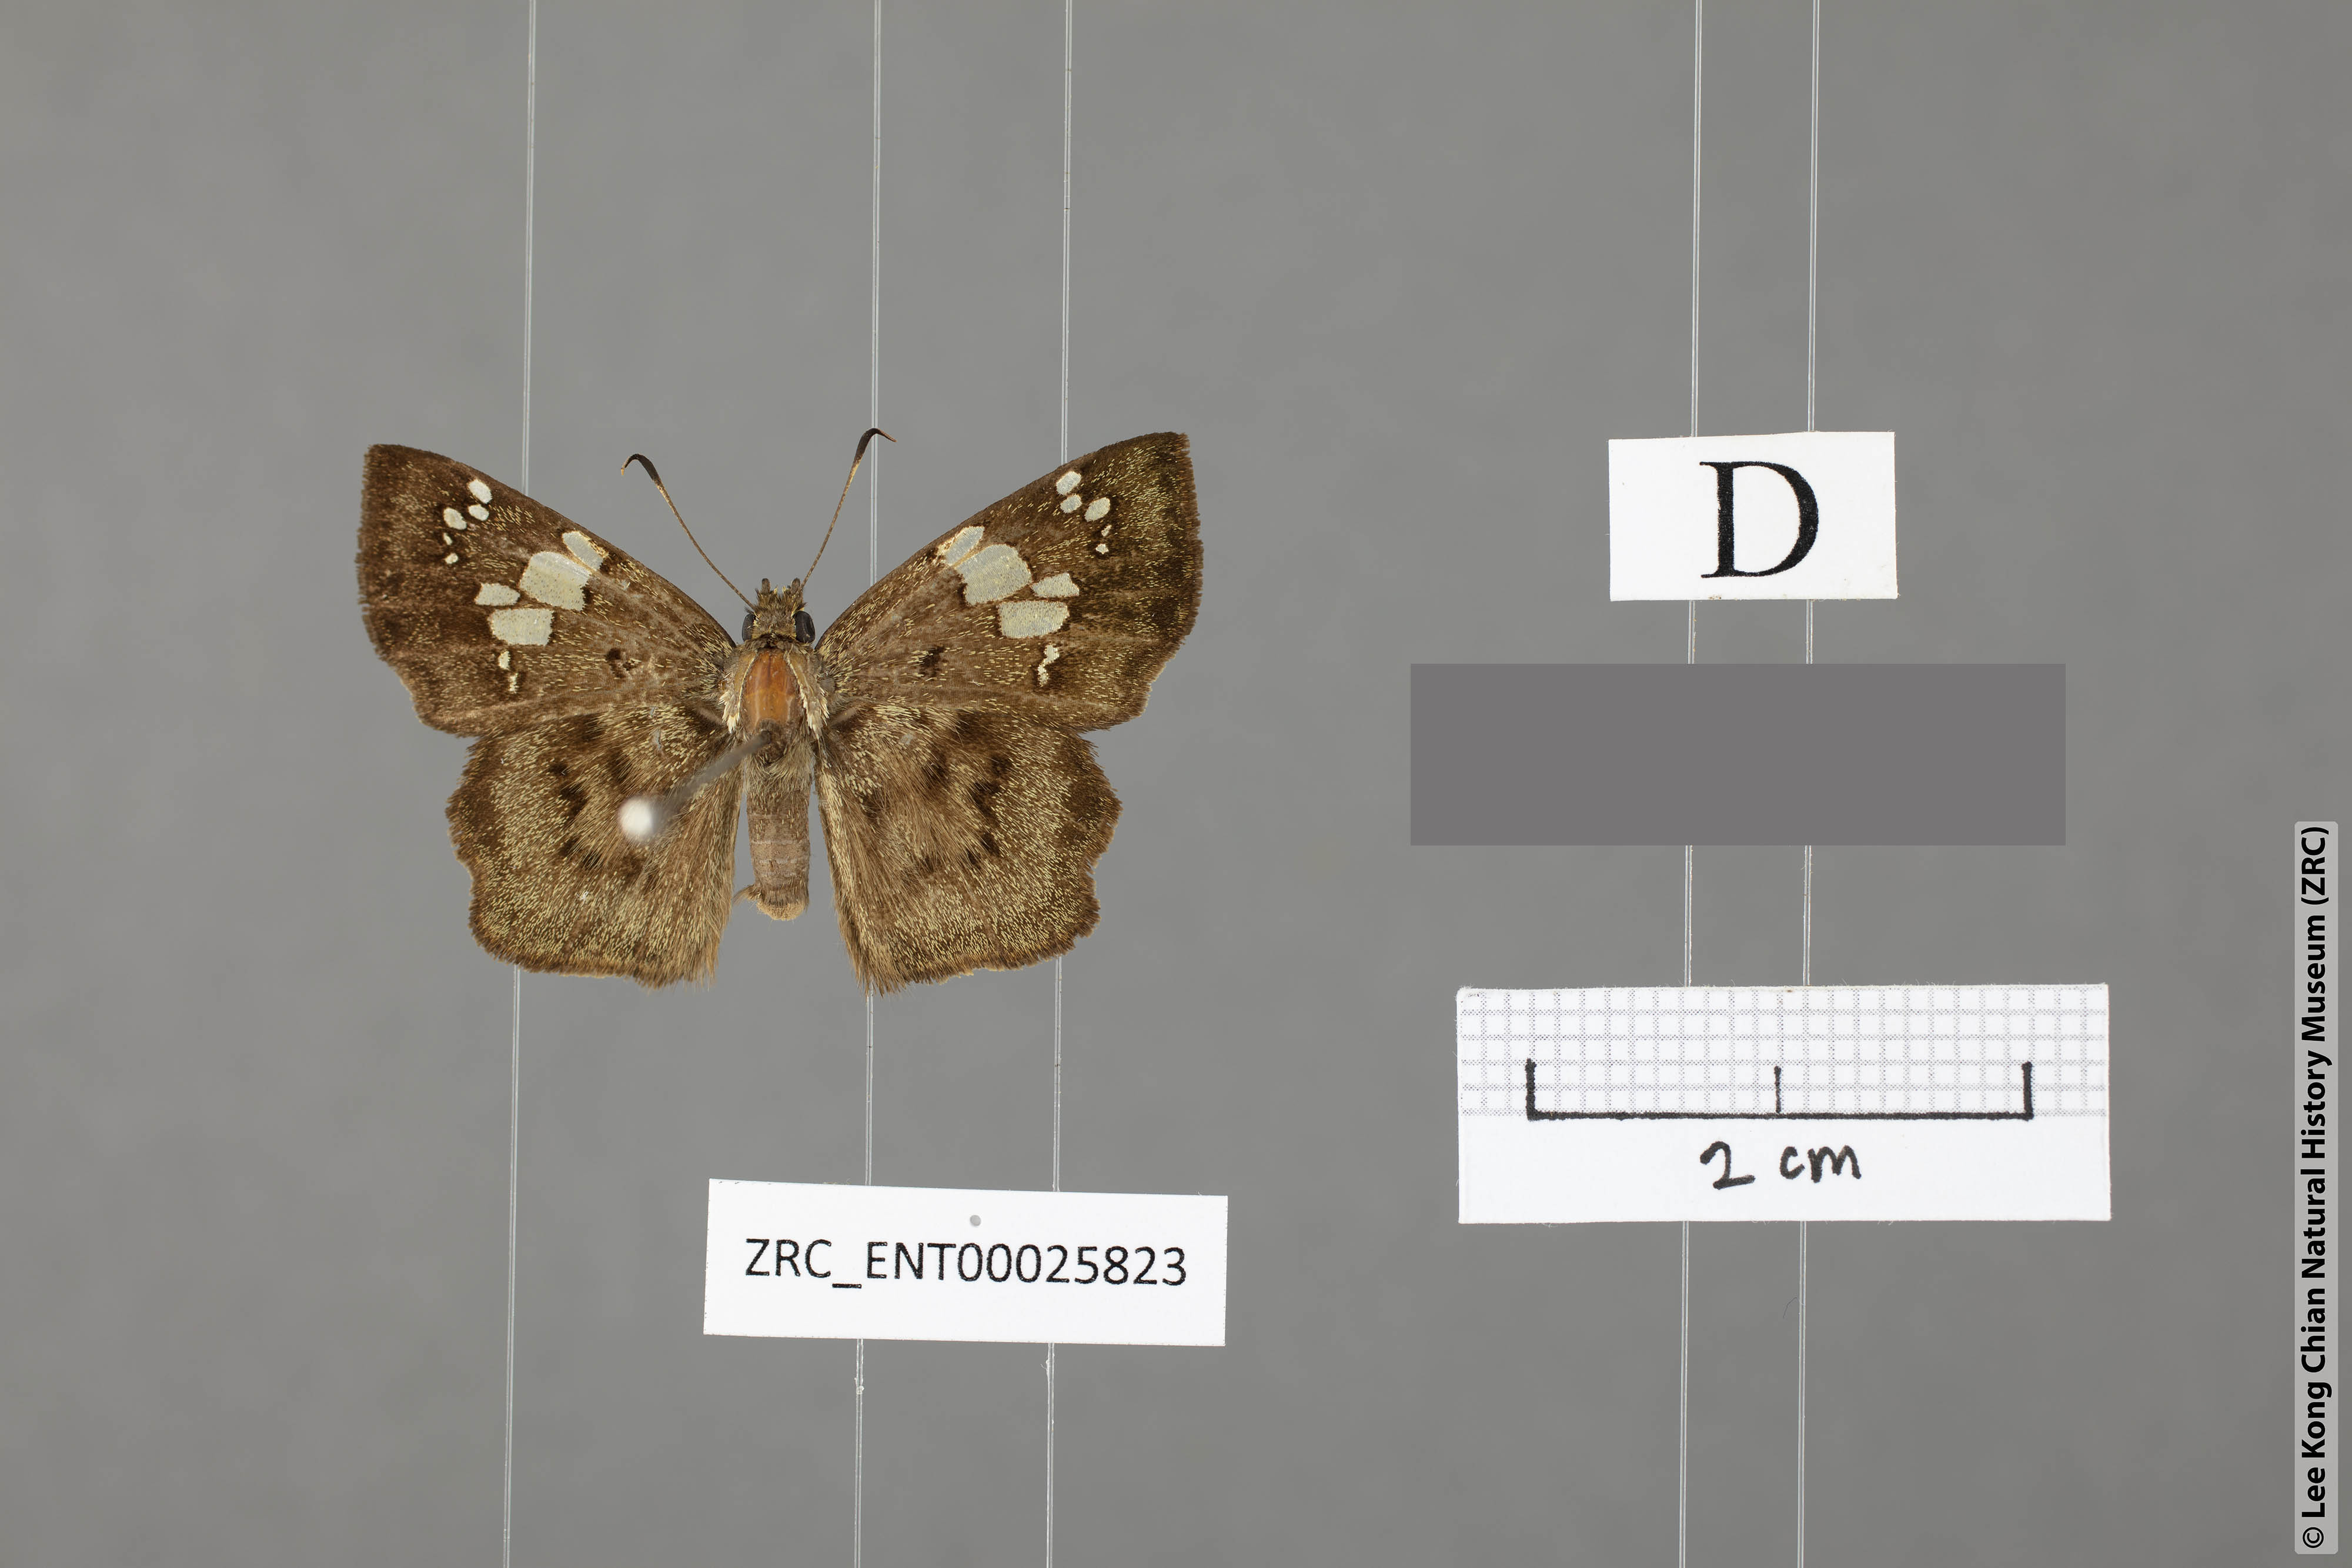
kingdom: Animalia
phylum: Arthropoda
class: Insecta
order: Lepidoptera
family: Hesperiidae
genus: Coladenia
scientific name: Coladenia
